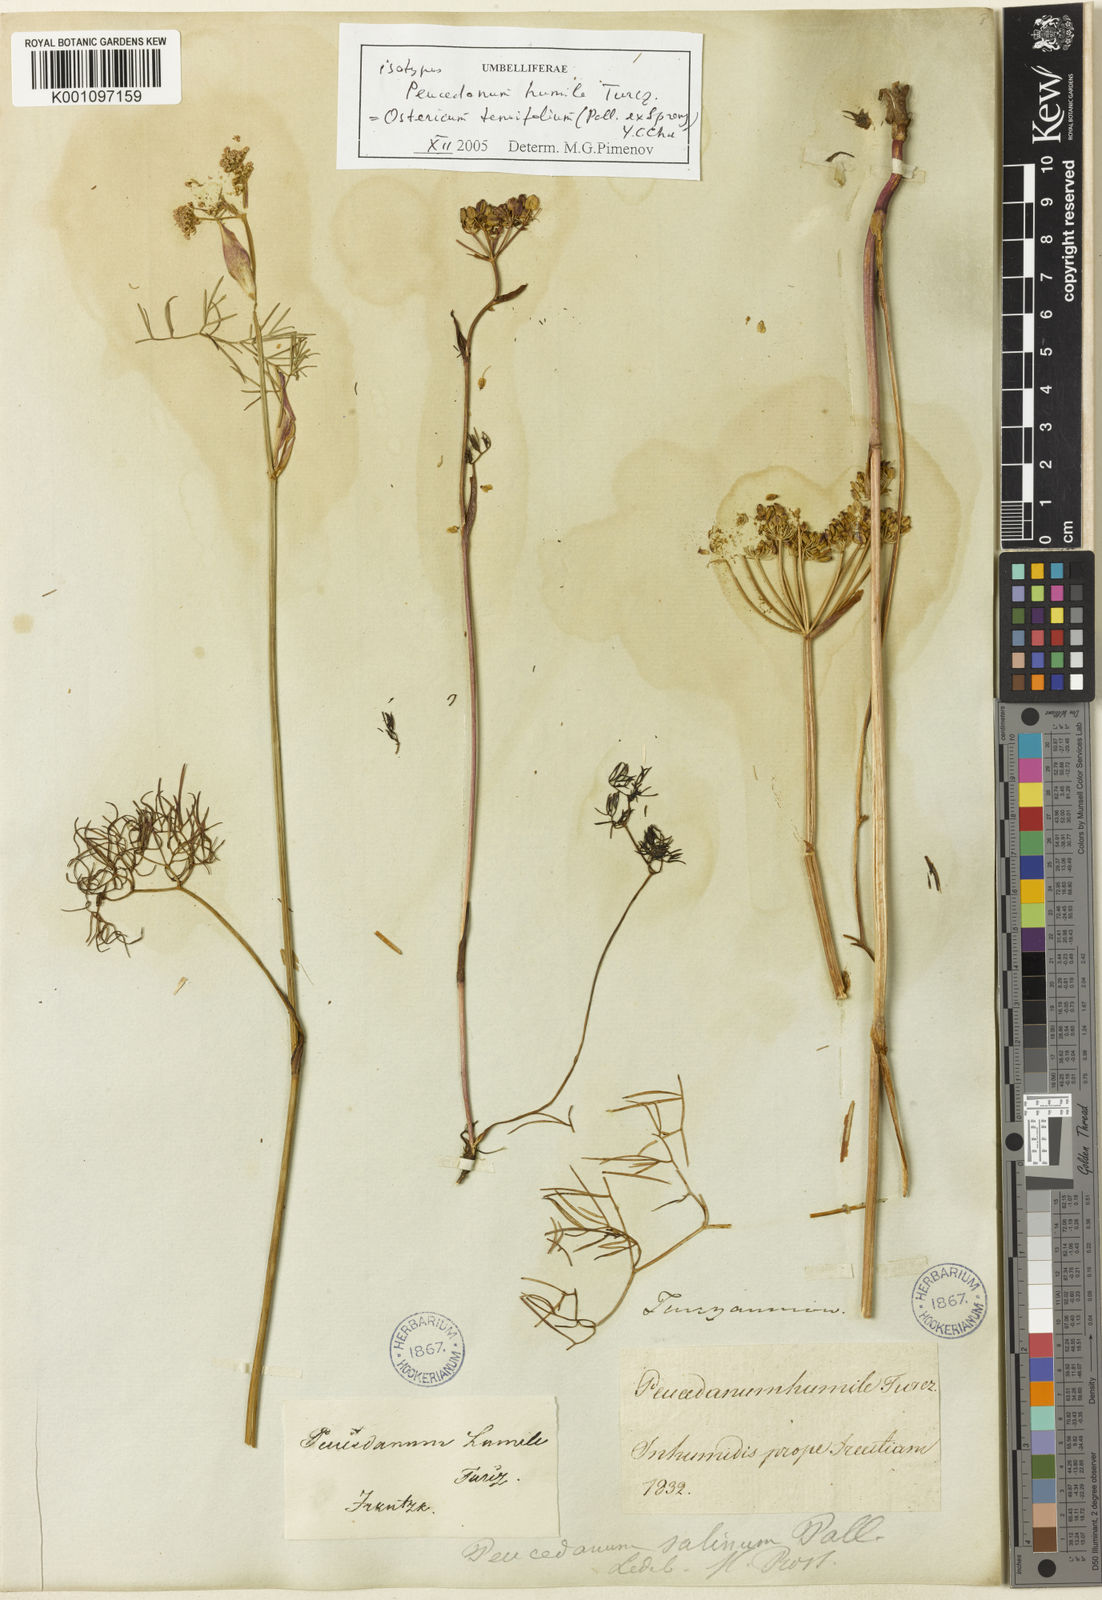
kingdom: Plantae
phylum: Tracheophyta
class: Magnoliopsida
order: Apiales
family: Apiaceae
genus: Angelica
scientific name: Angelica
